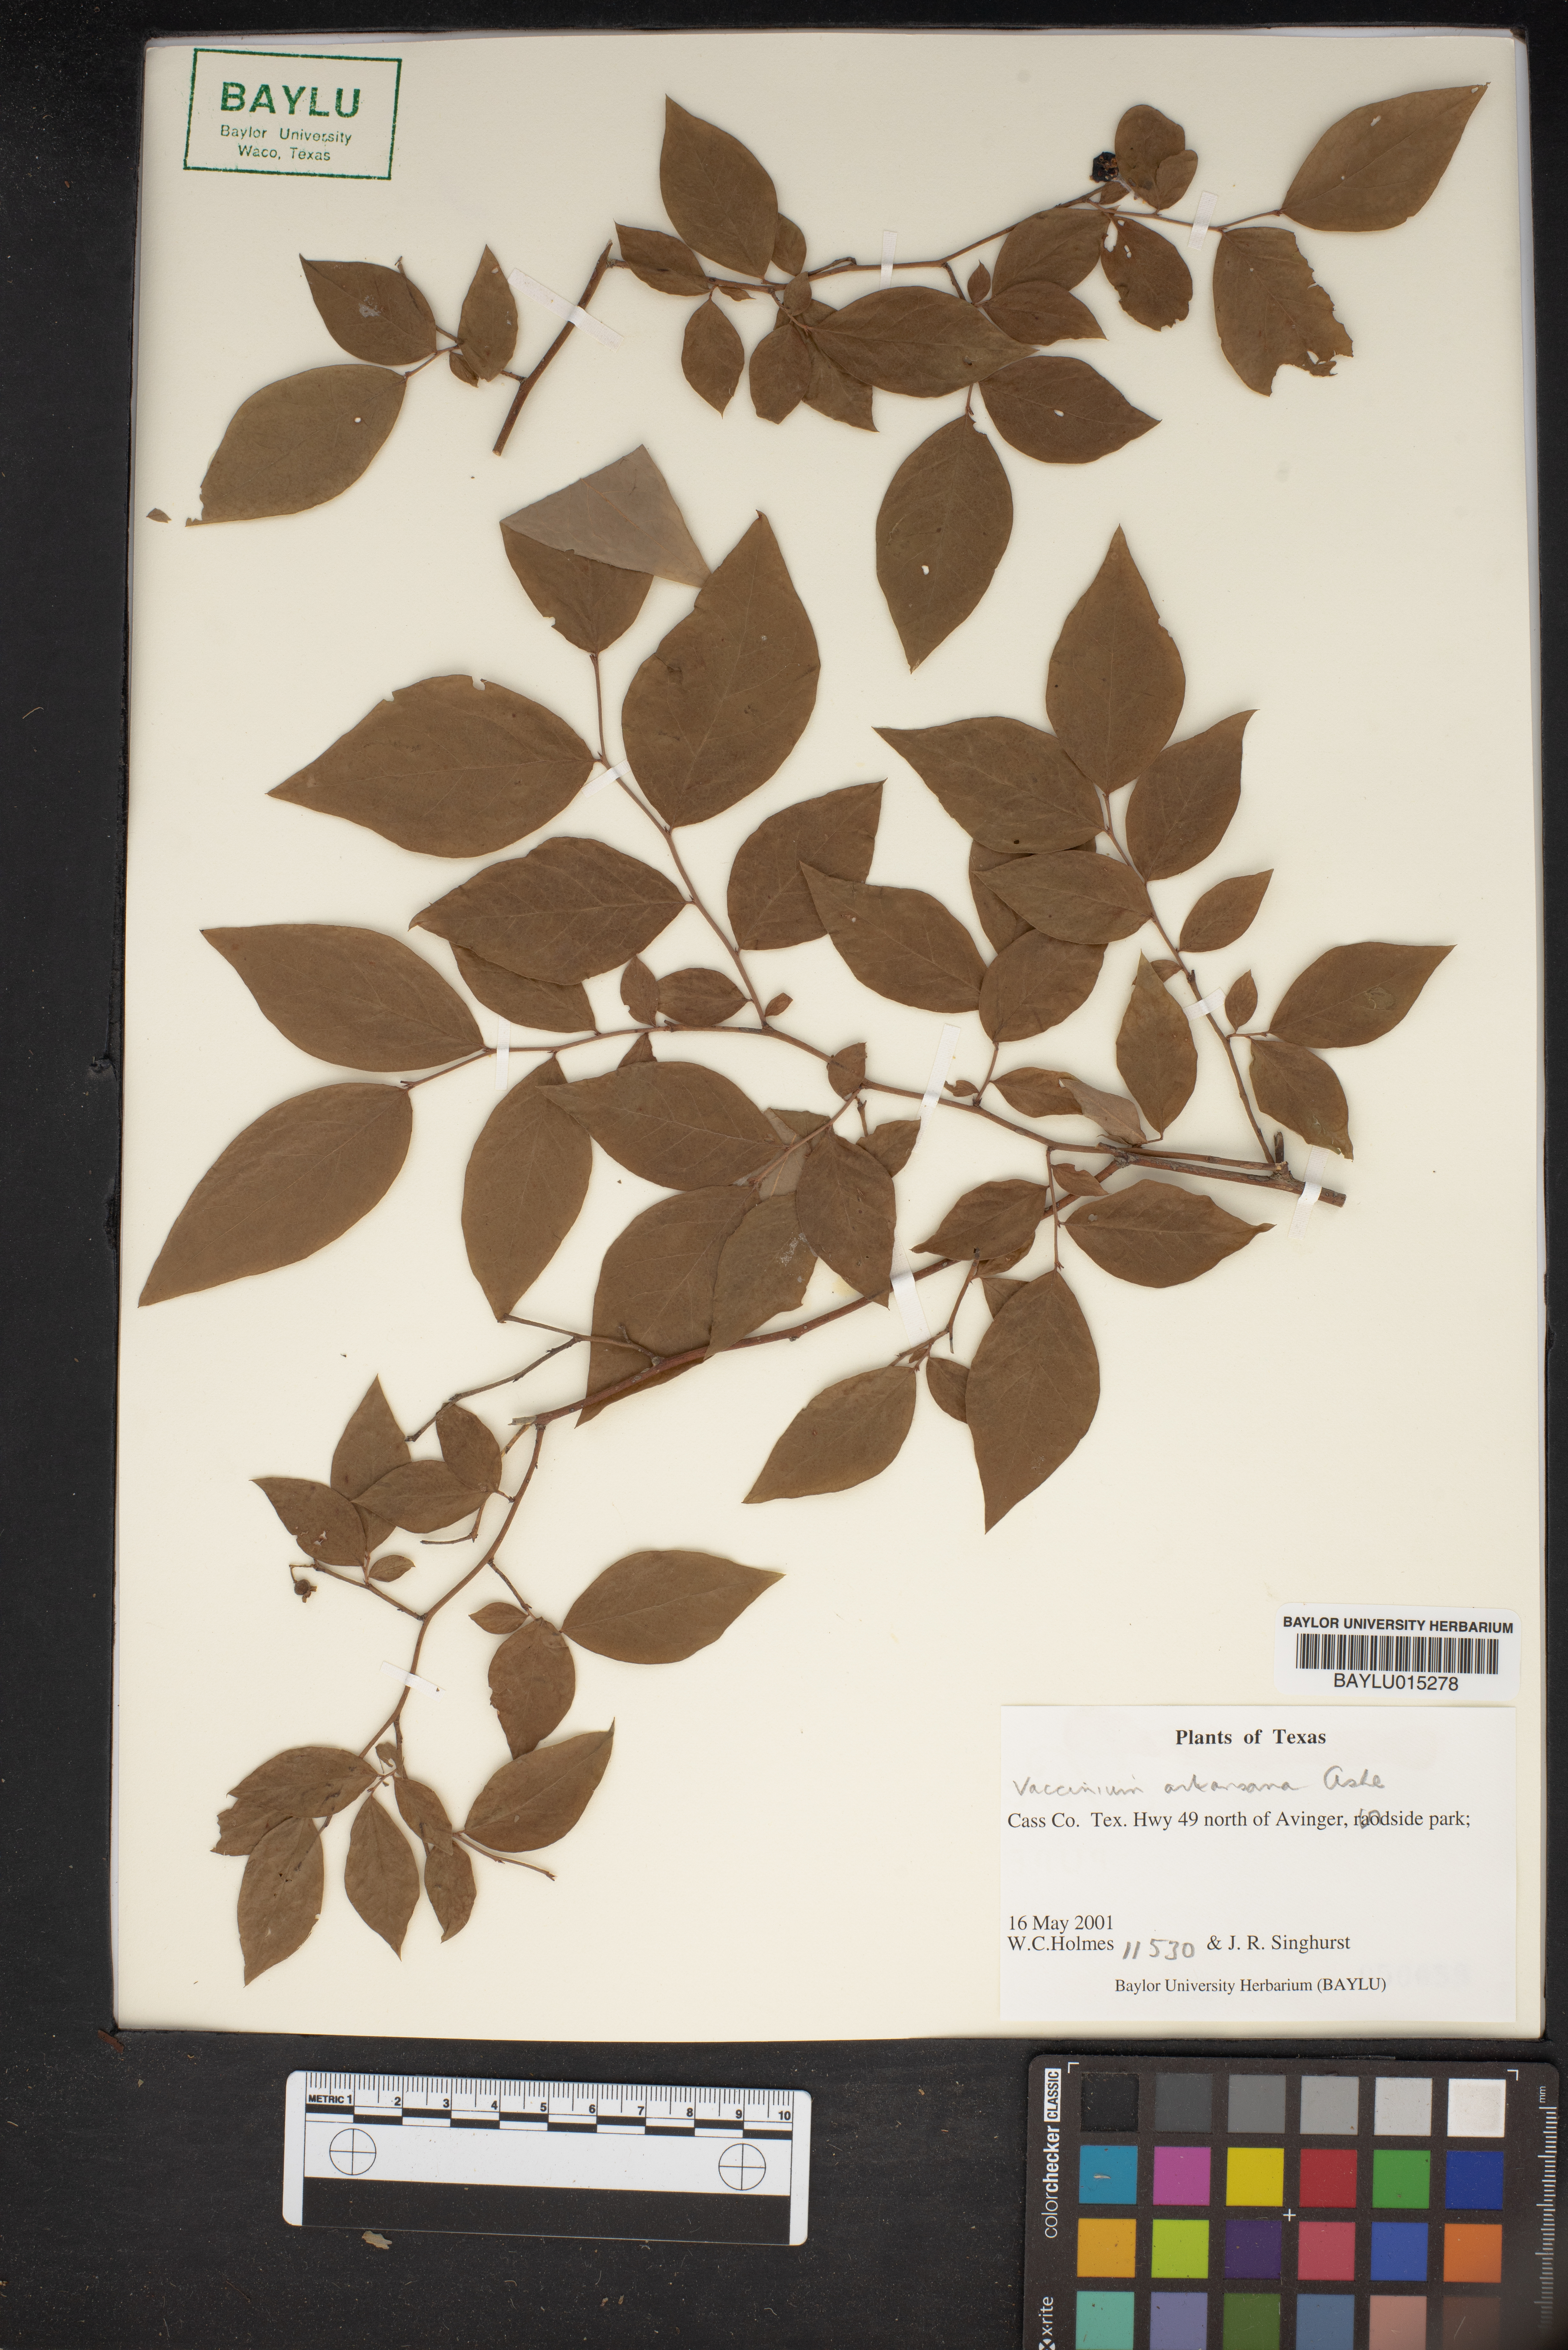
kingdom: Plantae
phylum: Tracheophyta
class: Magnoliopsida
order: Ericales
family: Ericaceae
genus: Vaccinium
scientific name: Vaccinium corymbosum
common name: Blueberry
